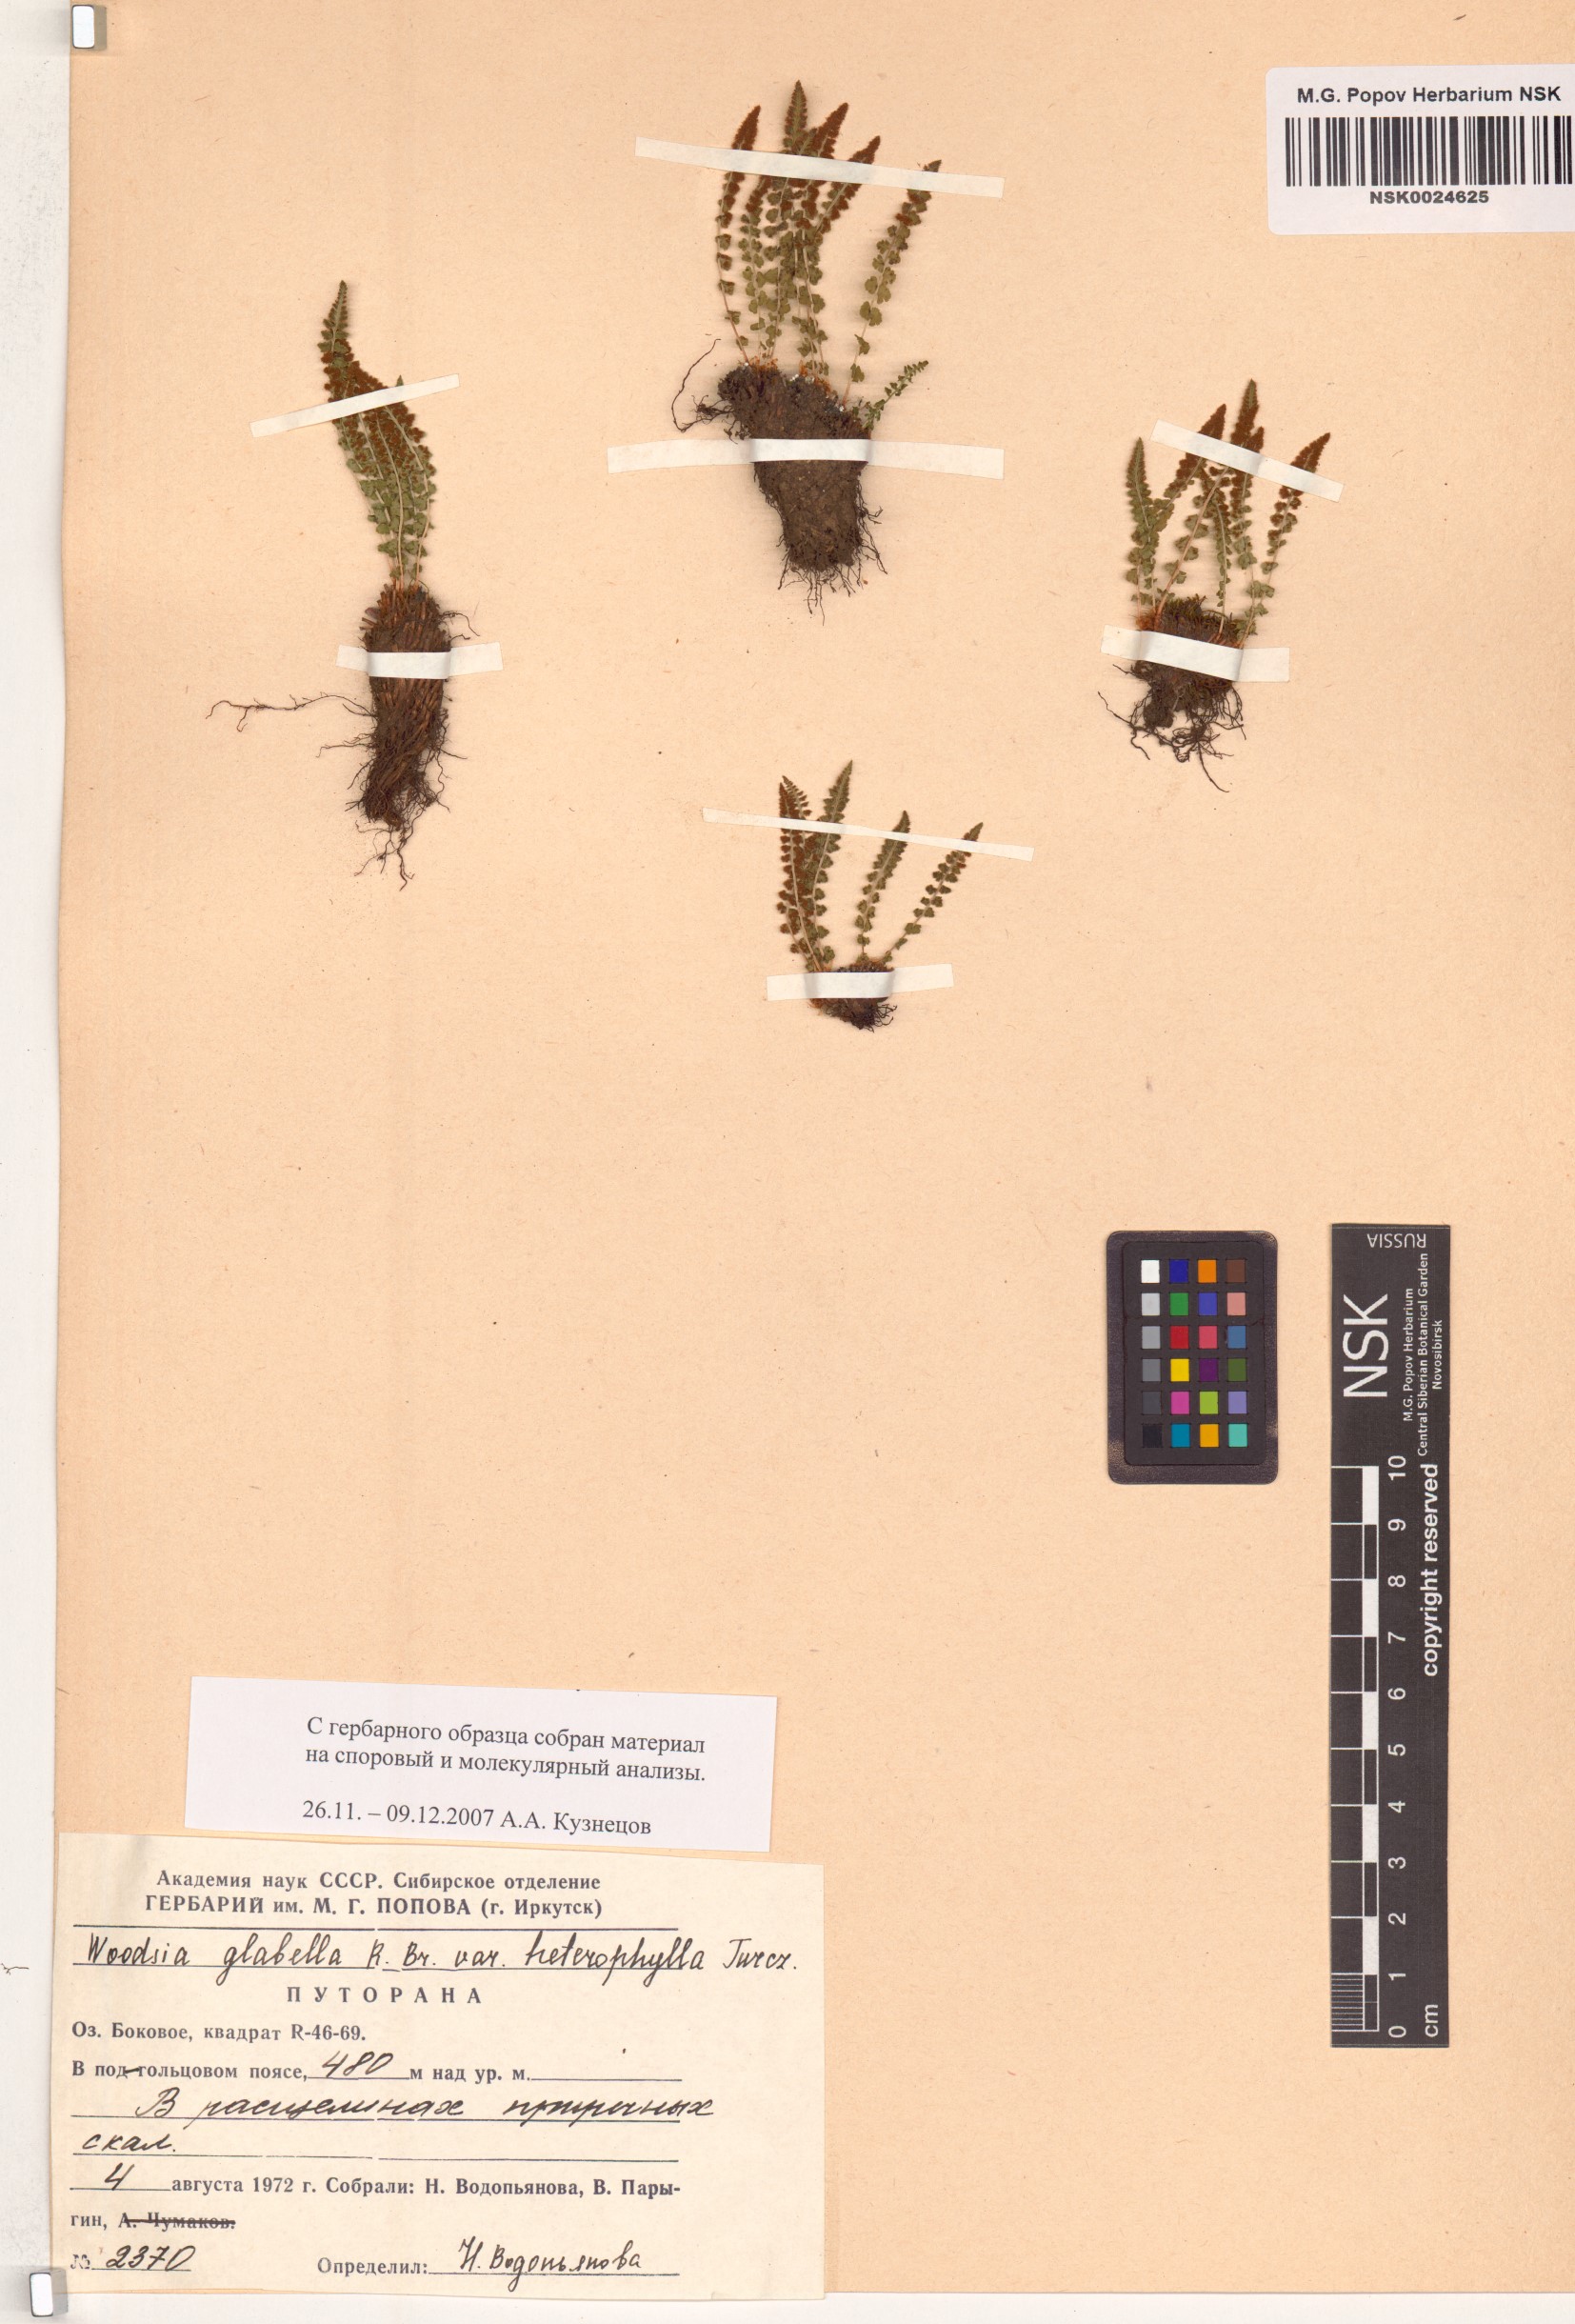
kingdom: Plantae
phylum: Tracheophyta
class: Polypodiopsida
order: Polypodiales
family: Woodsiaceae
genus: Woodsia
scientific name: Woodsia pulchella
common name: Graceful woodsia
